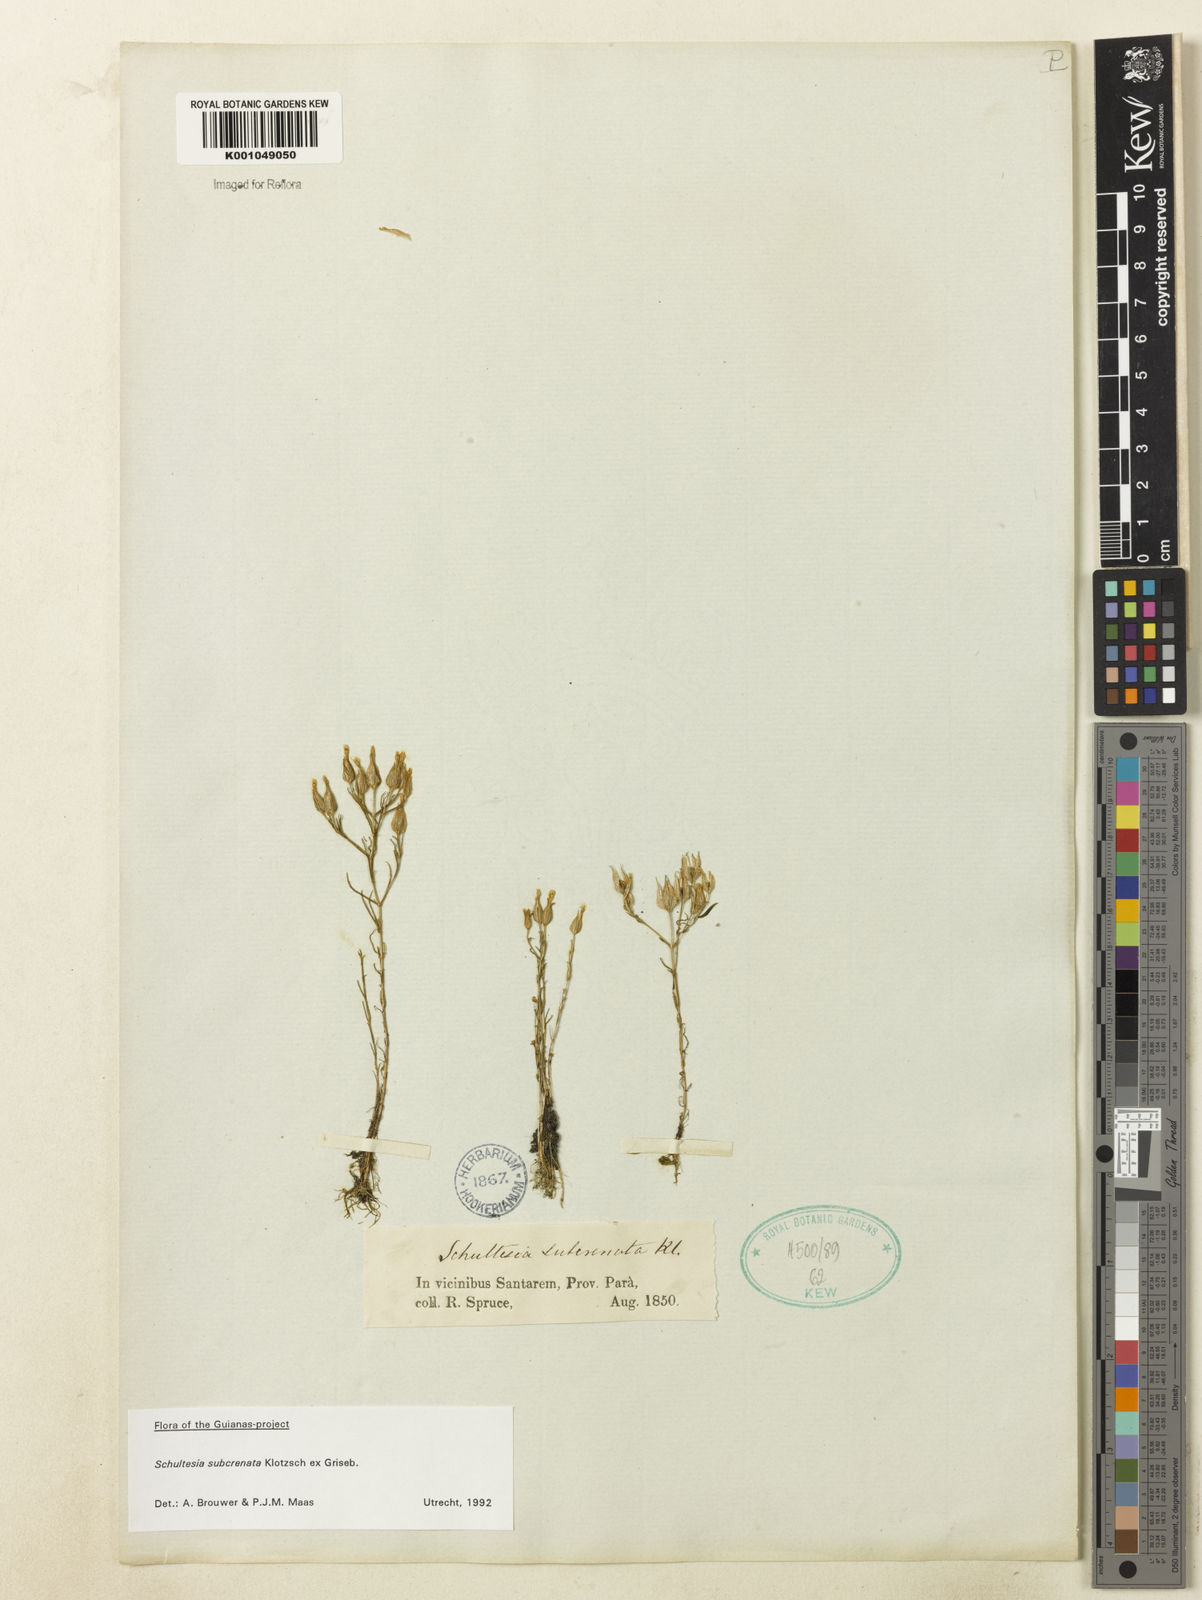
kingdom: Plantae
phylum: Tracheophyta
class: Magnoliopsida
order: Gentianales
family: Gentianaceae
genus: Schultesia
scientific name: Schultesia subcrenata
